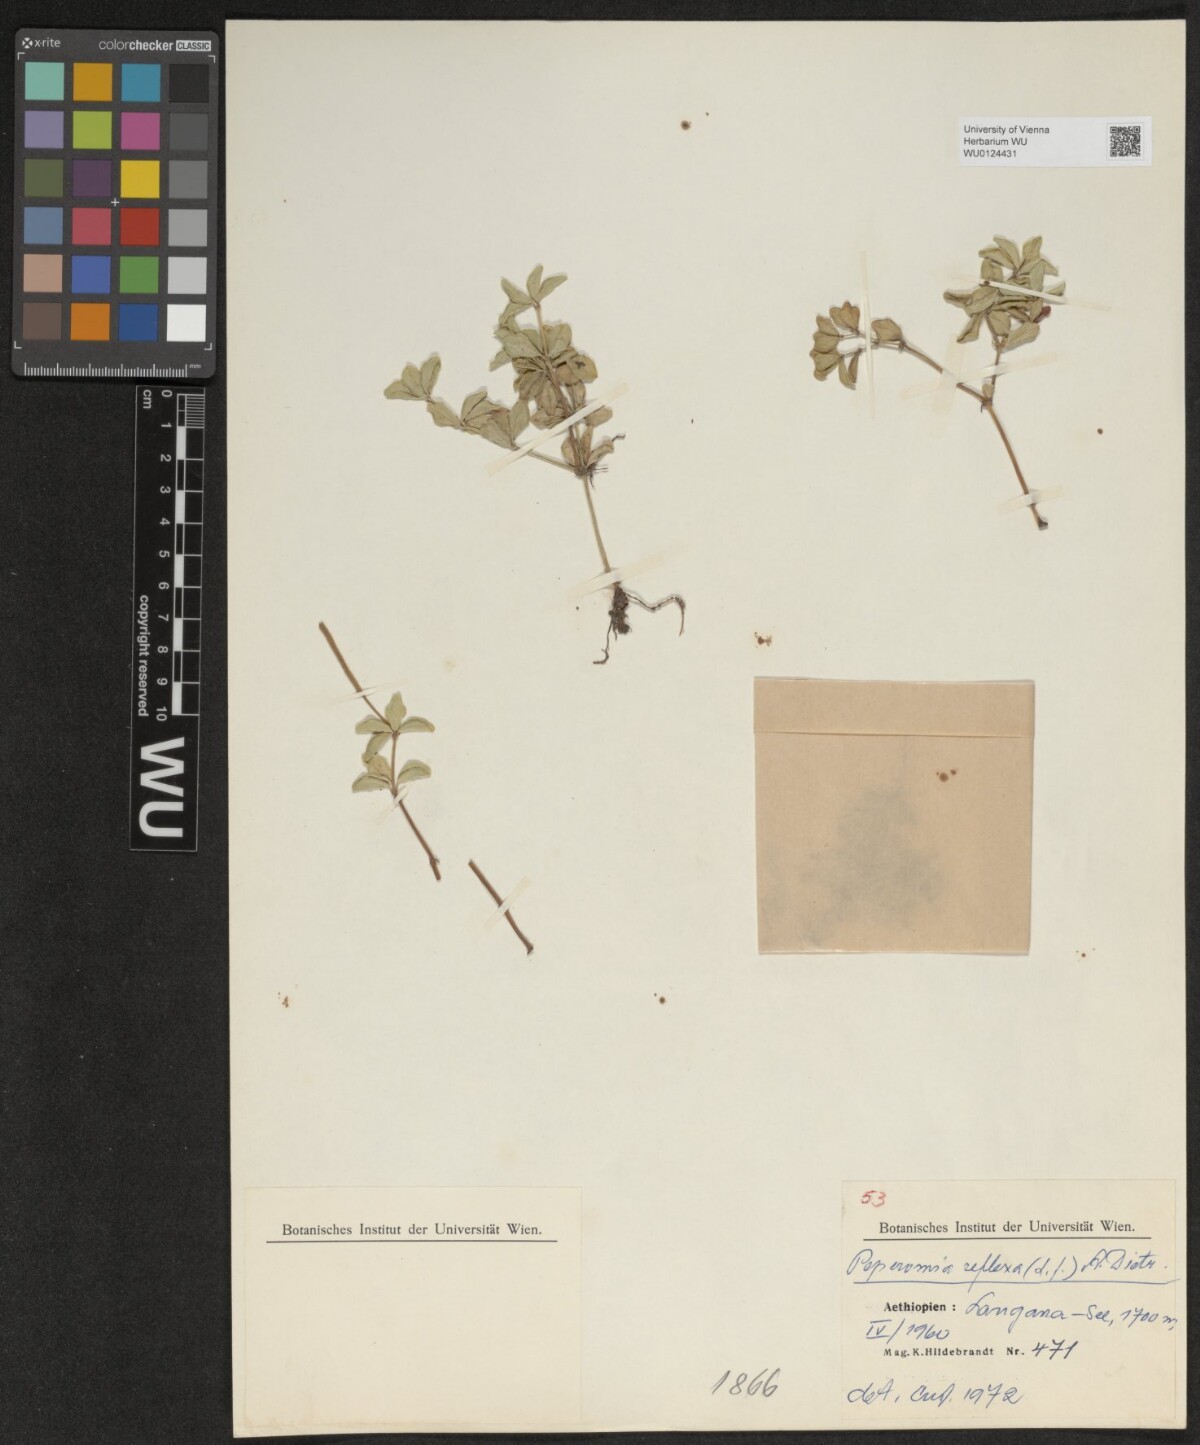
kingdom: Plantae
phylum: Tracheophyta
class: Magnoliopsida
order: Piperales
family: Piperaceae
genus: Peperomia
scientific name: Peperomia tetraphylla
